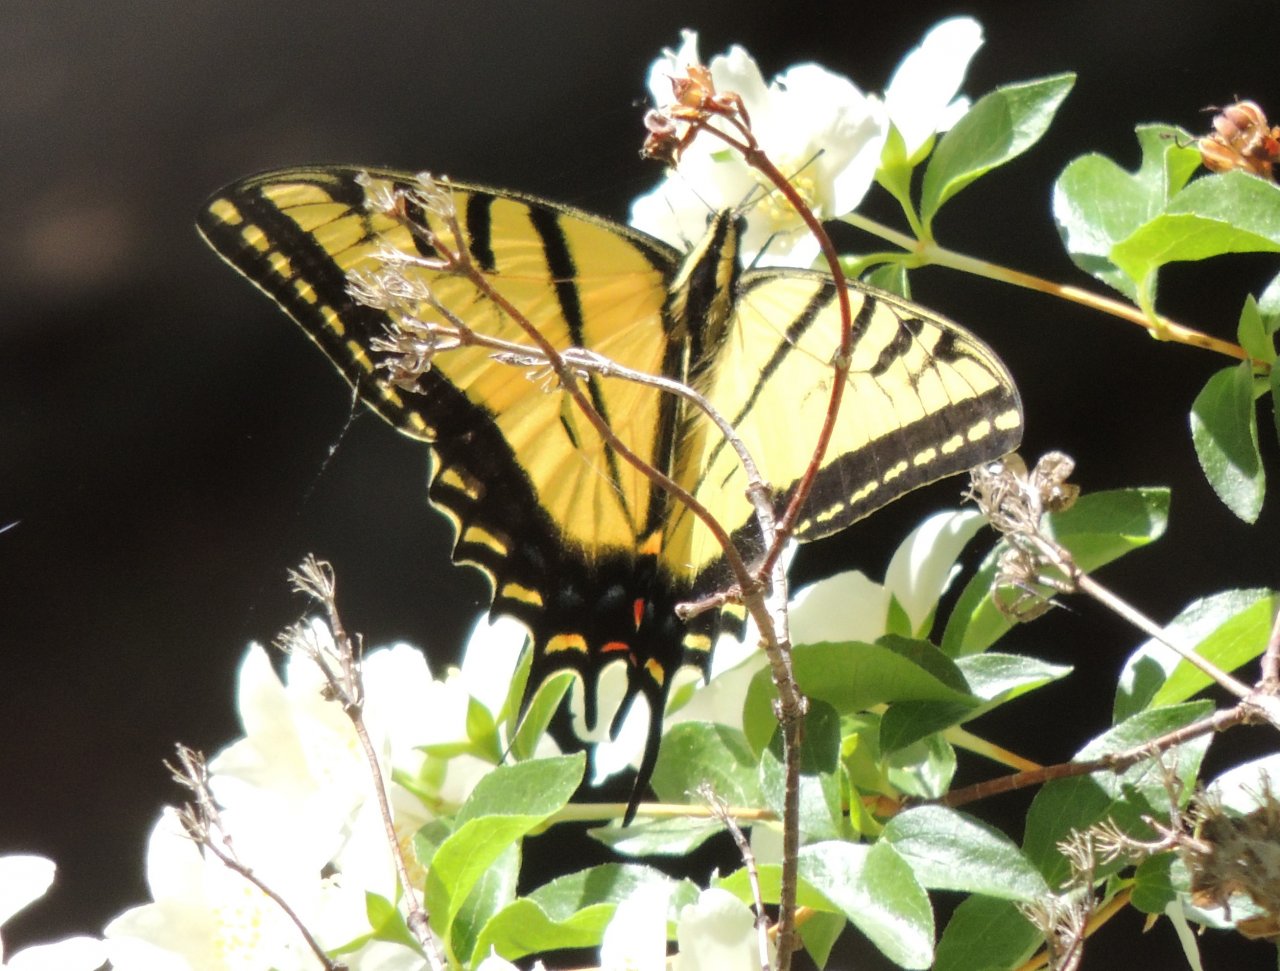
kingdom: Animalia
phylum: Arthropoda
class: Insecta
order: Lepidoptera
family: Papilionidae
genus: Papilio
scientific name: Papilio multicaudata
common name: Two-tailed Swallowtail
